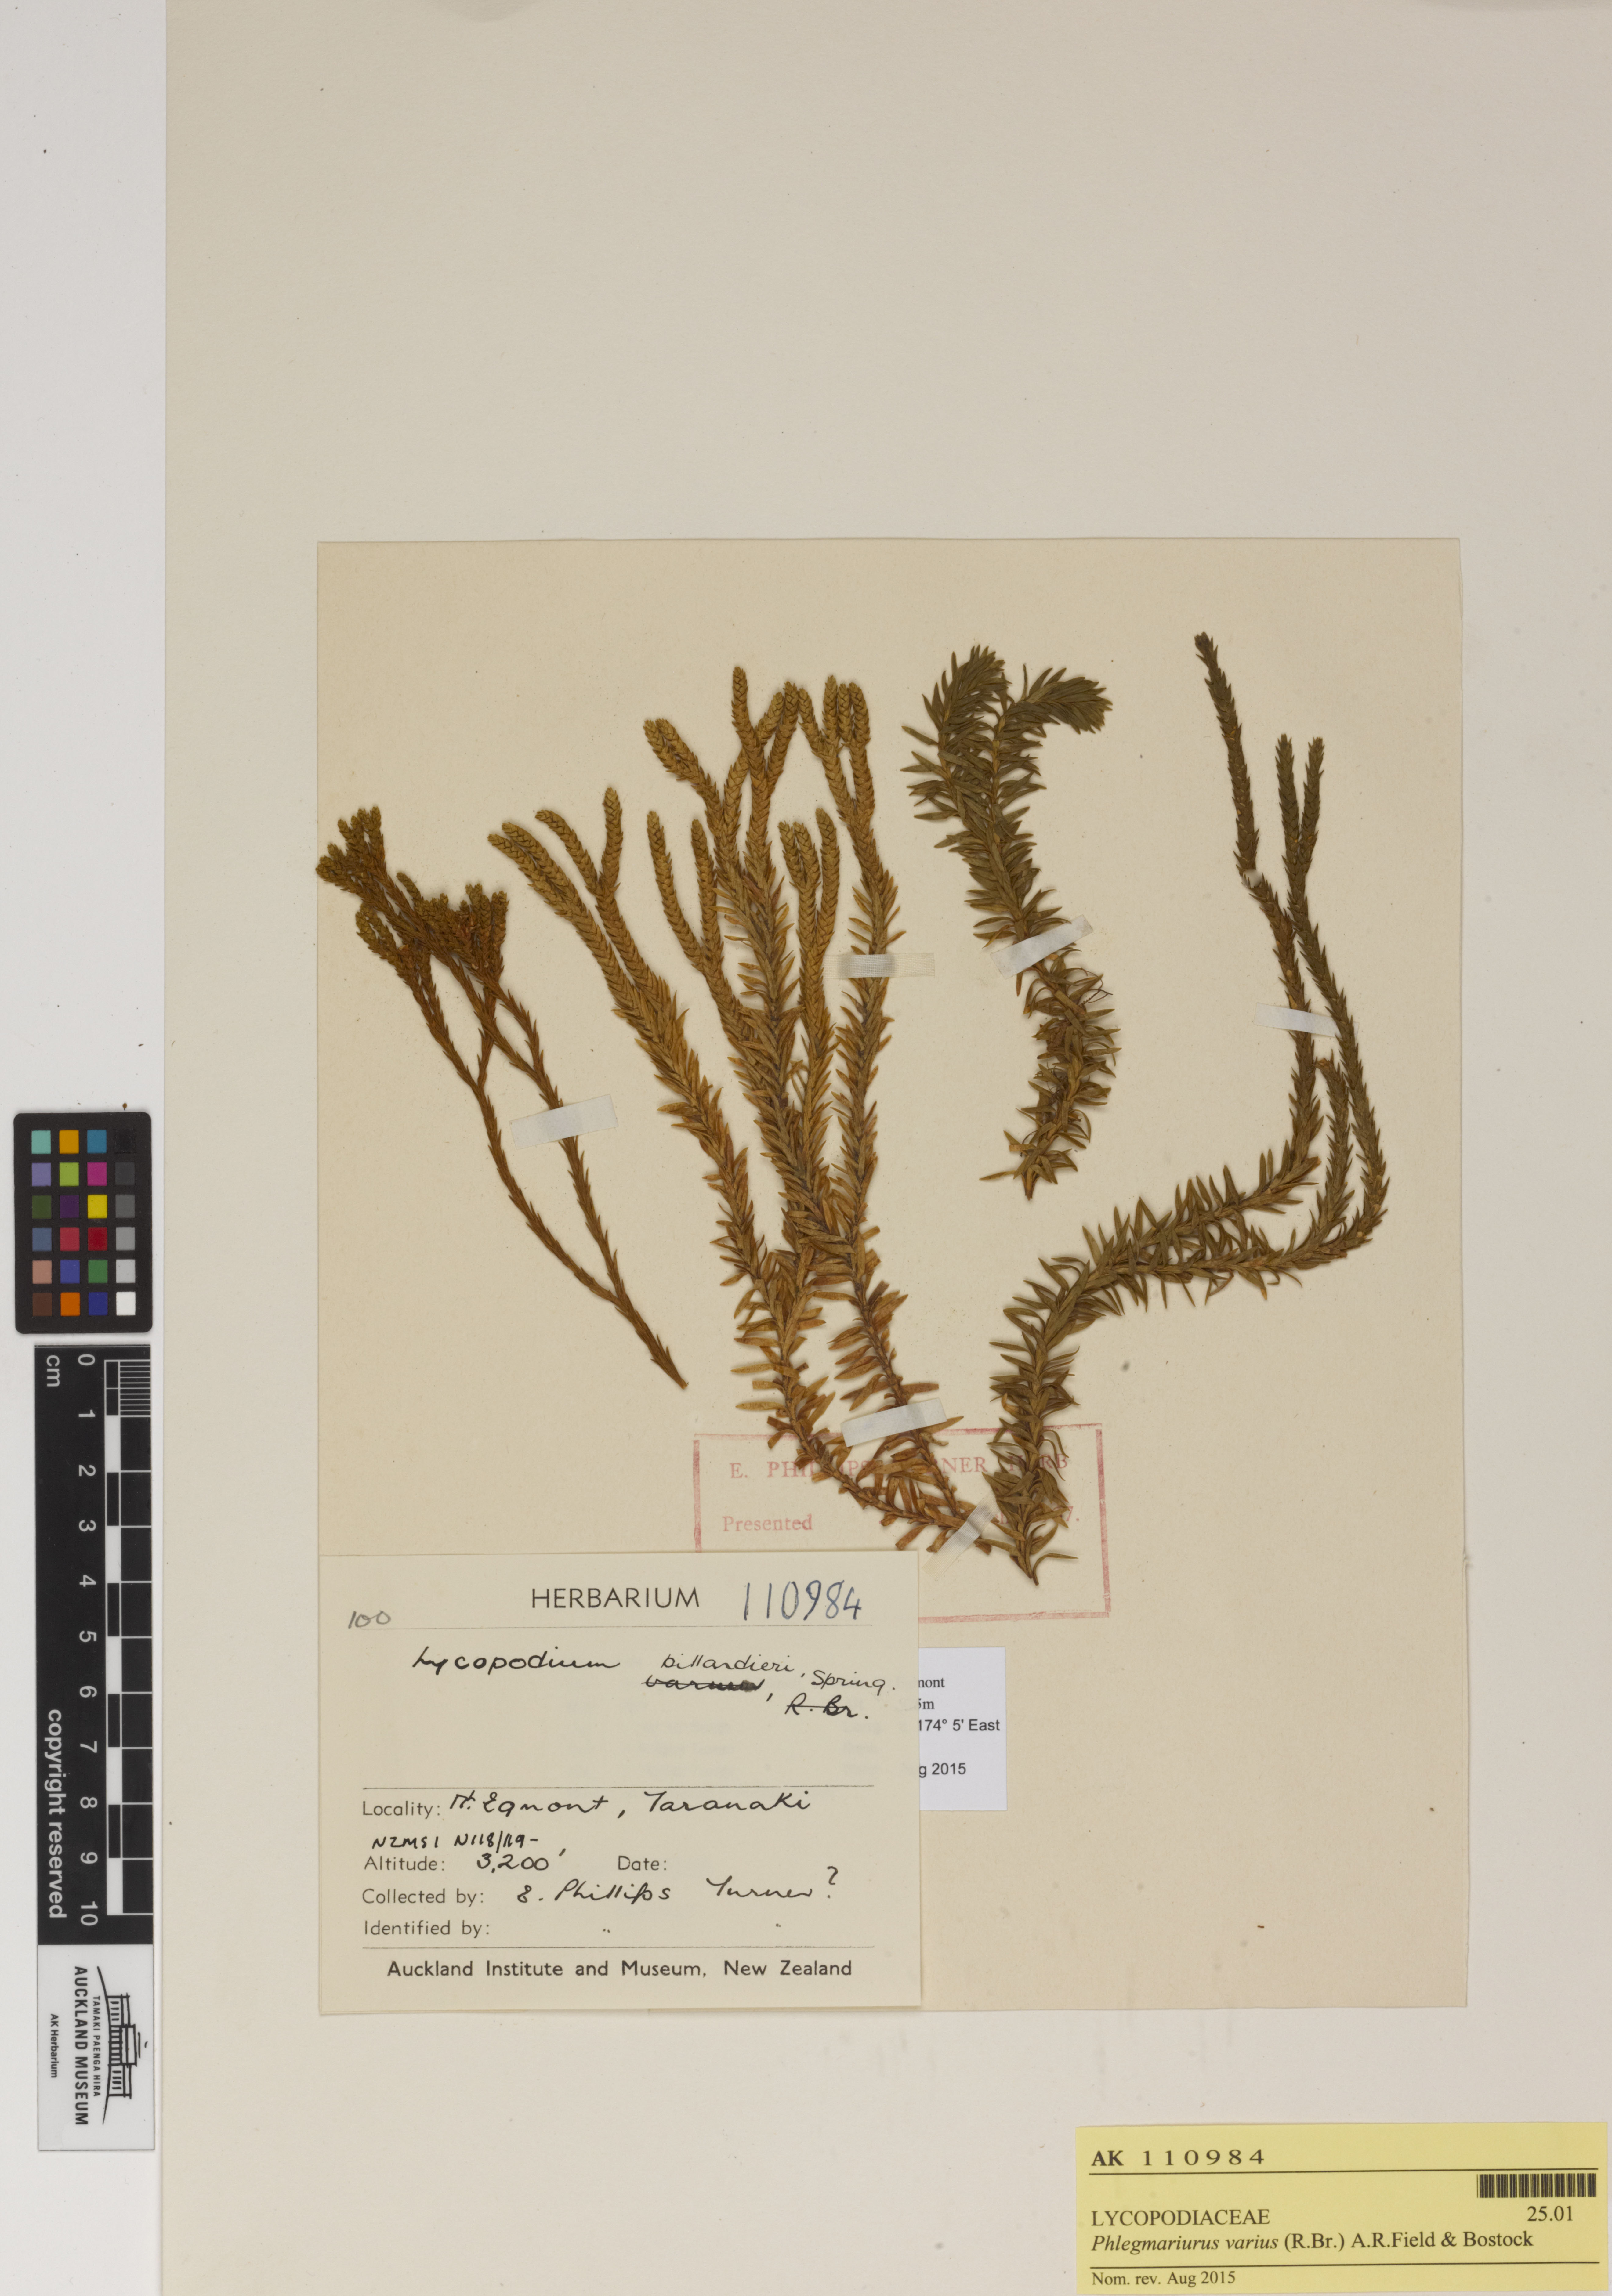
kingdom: Plantae
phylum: Tracheophyta
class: Lycopodiopsida
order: Lycopodiales
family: Lycopodiaceae
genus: Phlegmariurus
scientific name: Phlegmariurus varius
